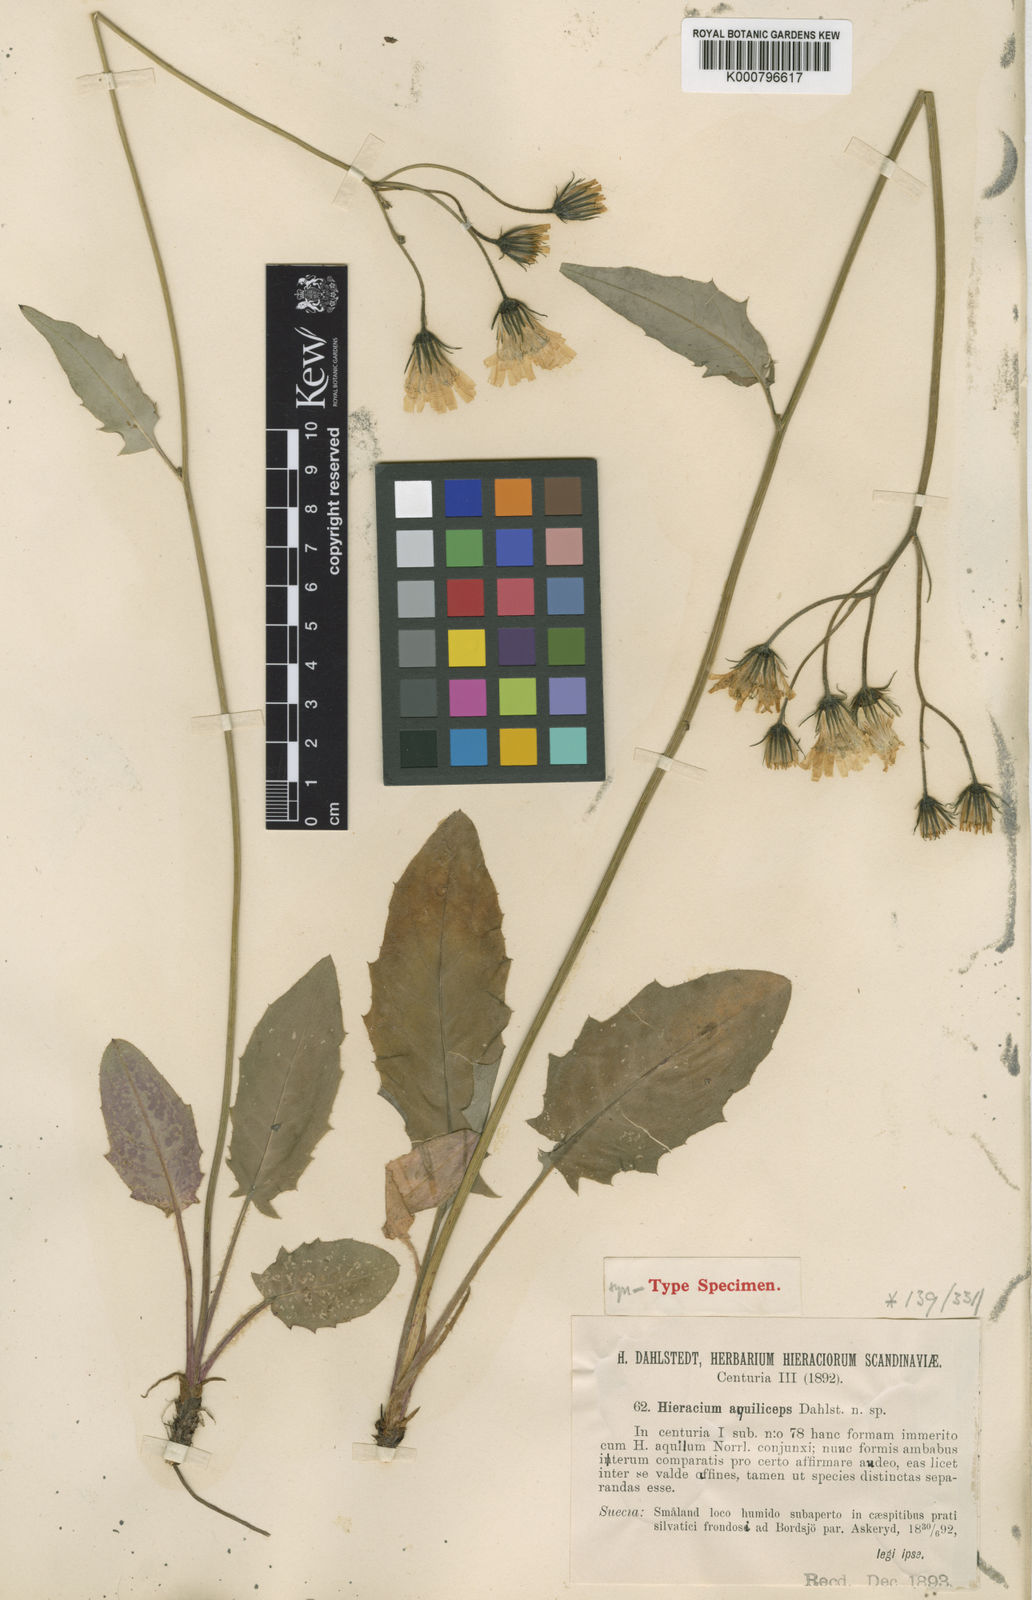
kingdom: Plantae
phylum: Tracheophyta
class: Magnoliopsida
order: Asterales
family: Asteraceae
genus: Hieracium
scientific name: Hieracium murorum
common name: Wall hawkweed
